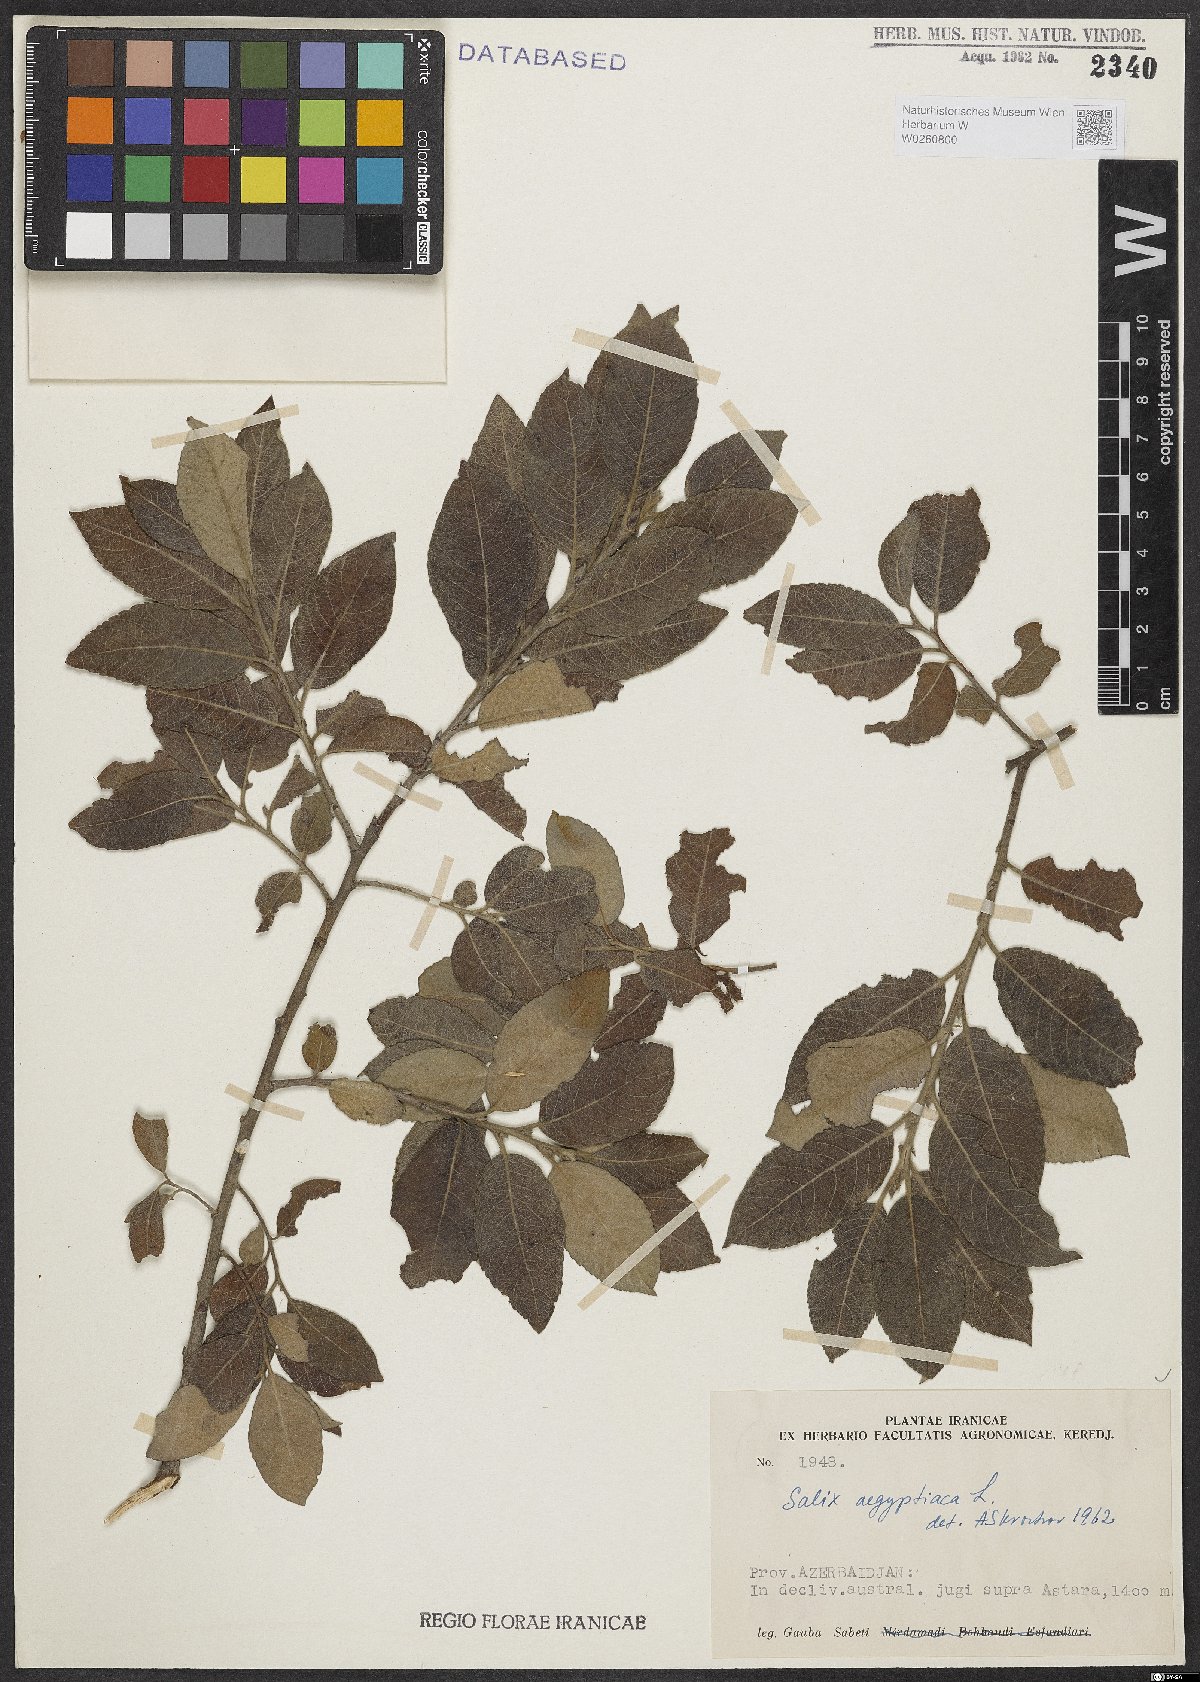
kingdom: Plantae
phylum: Tracheophyta
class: Magnoliopsida
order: Malpighiales
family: Salicaceae
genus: Salix
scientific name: Salix aegyptiaca
